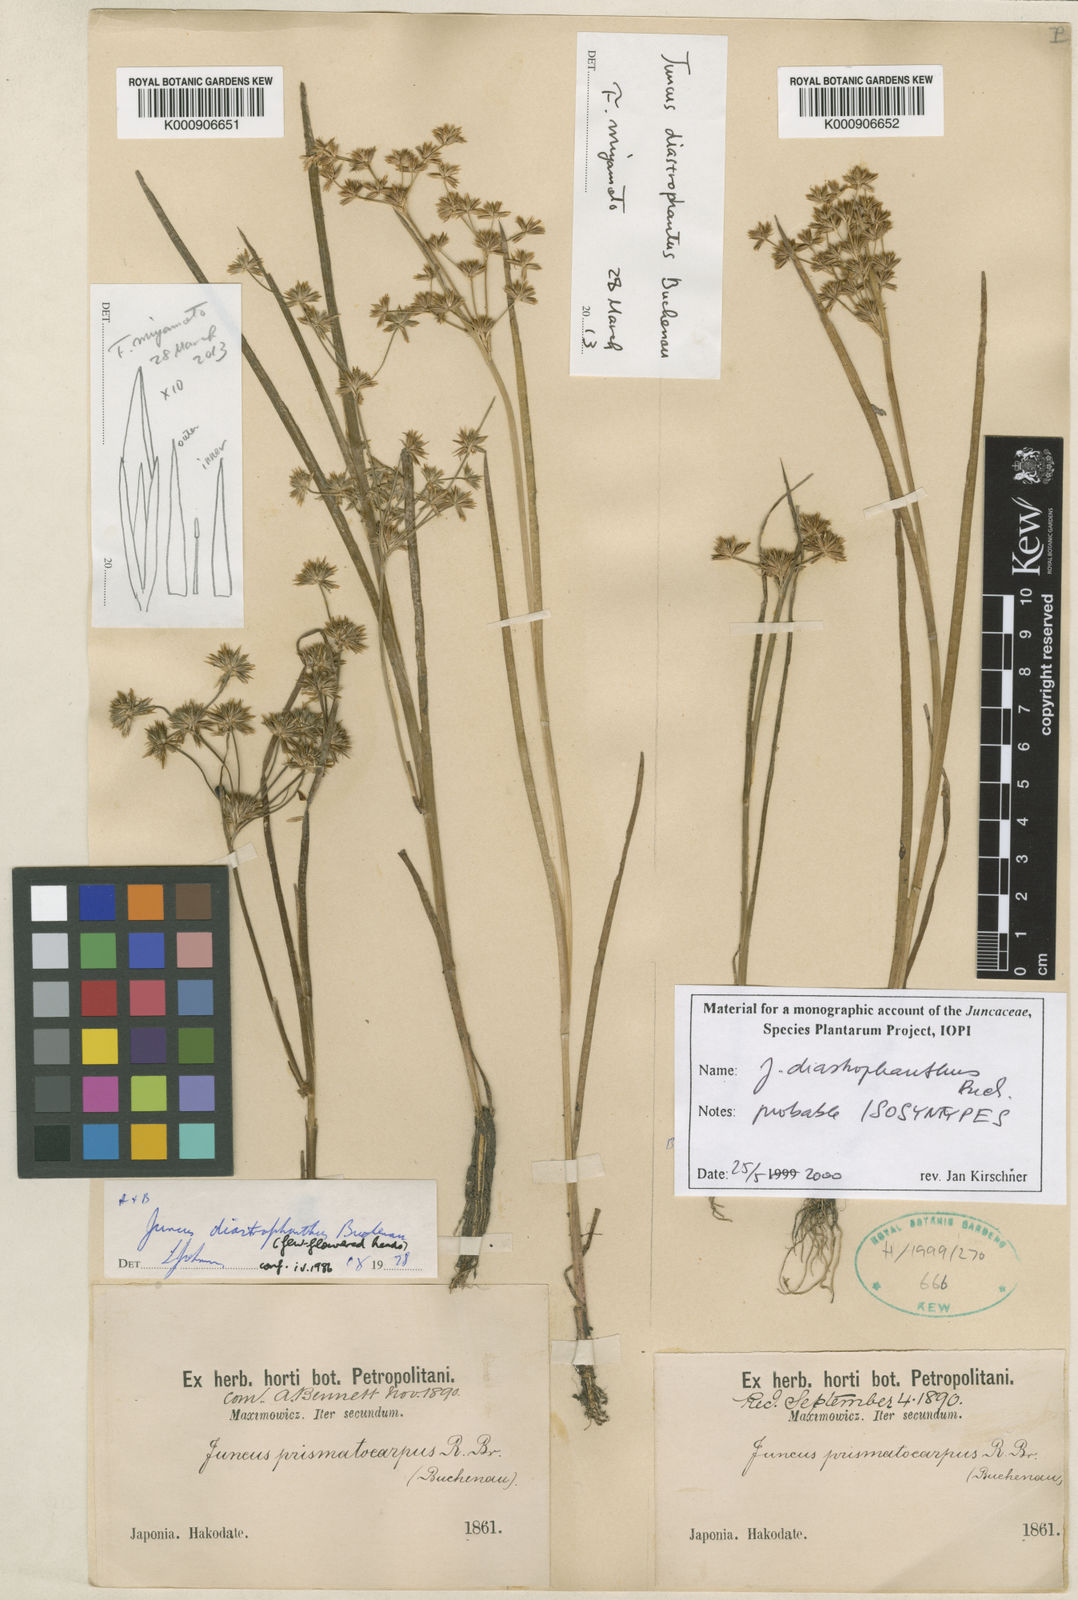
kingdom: Plantae
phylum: Tracheophyta
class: Liliopsida
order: Poales
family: Juncaceae
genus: Juncus
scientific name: Juncus diastrophanthus
